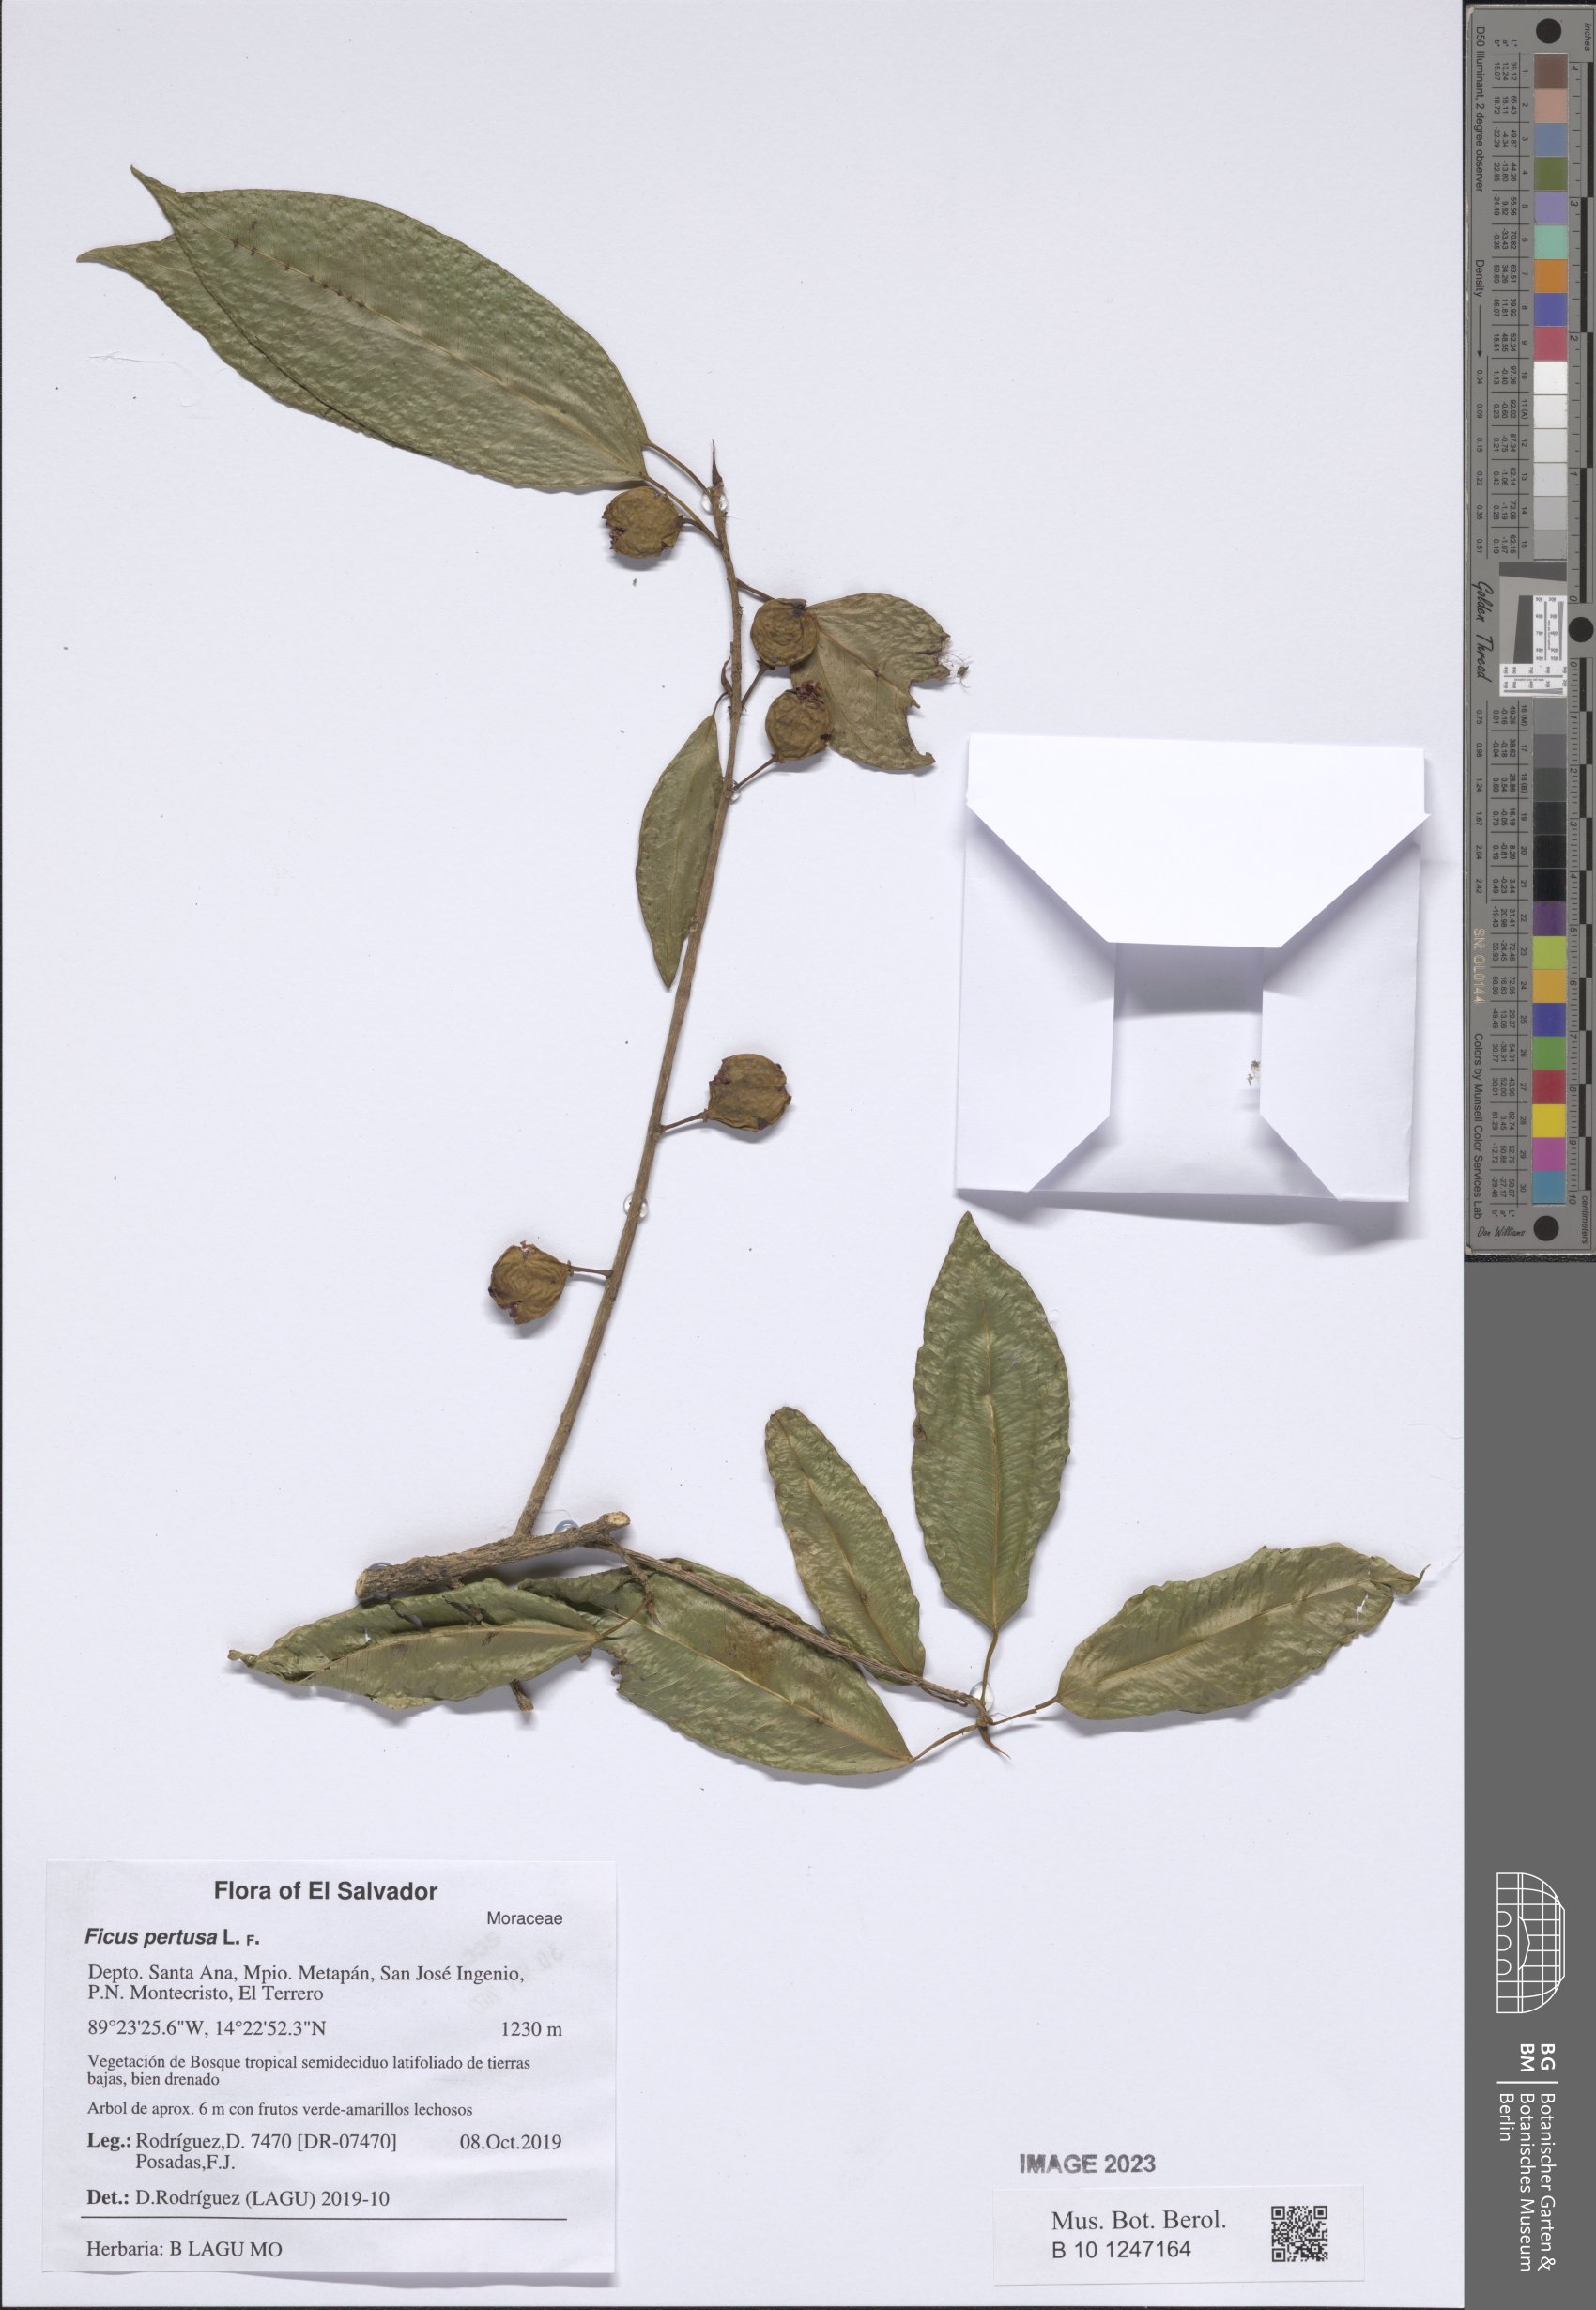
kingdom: Plantae
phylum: Tracheophyta
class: Magnoliopsida
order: Rosales
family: Moraceae
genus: Ficus
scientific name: Ficus pertusa
